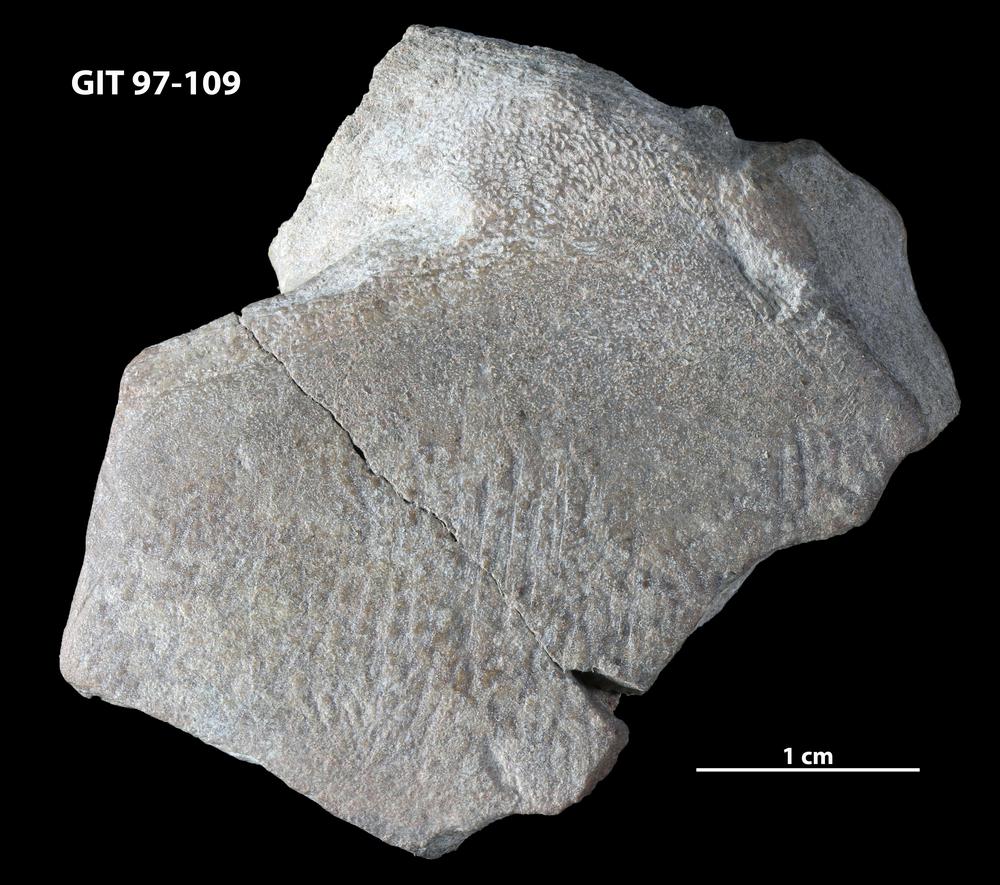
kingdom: Animalia
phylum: Chordata
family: Holonematidae
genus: Holonema
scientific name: Holonema
